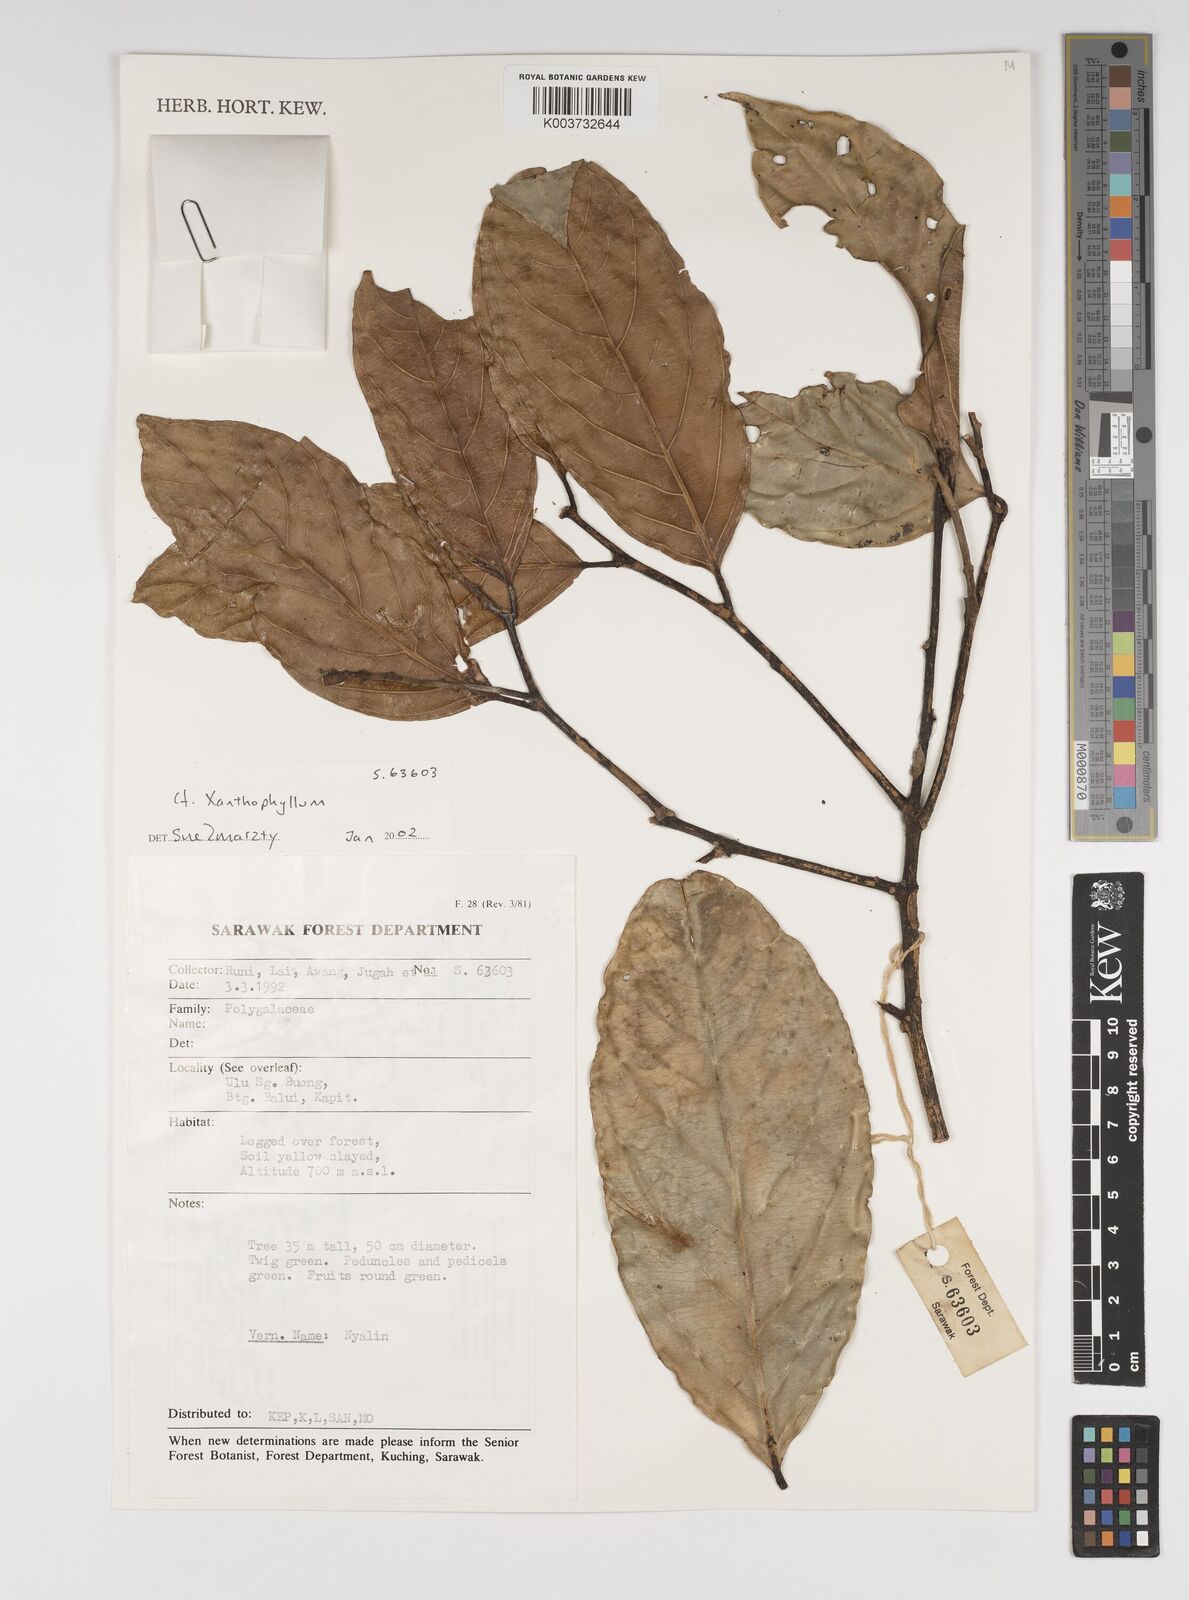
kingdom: Plantae
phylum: Tracheophyta
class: Magnoliopsida
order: Fabales
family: Polygalaceae
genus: Xanthophyllum
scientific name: Xanthophyllum
